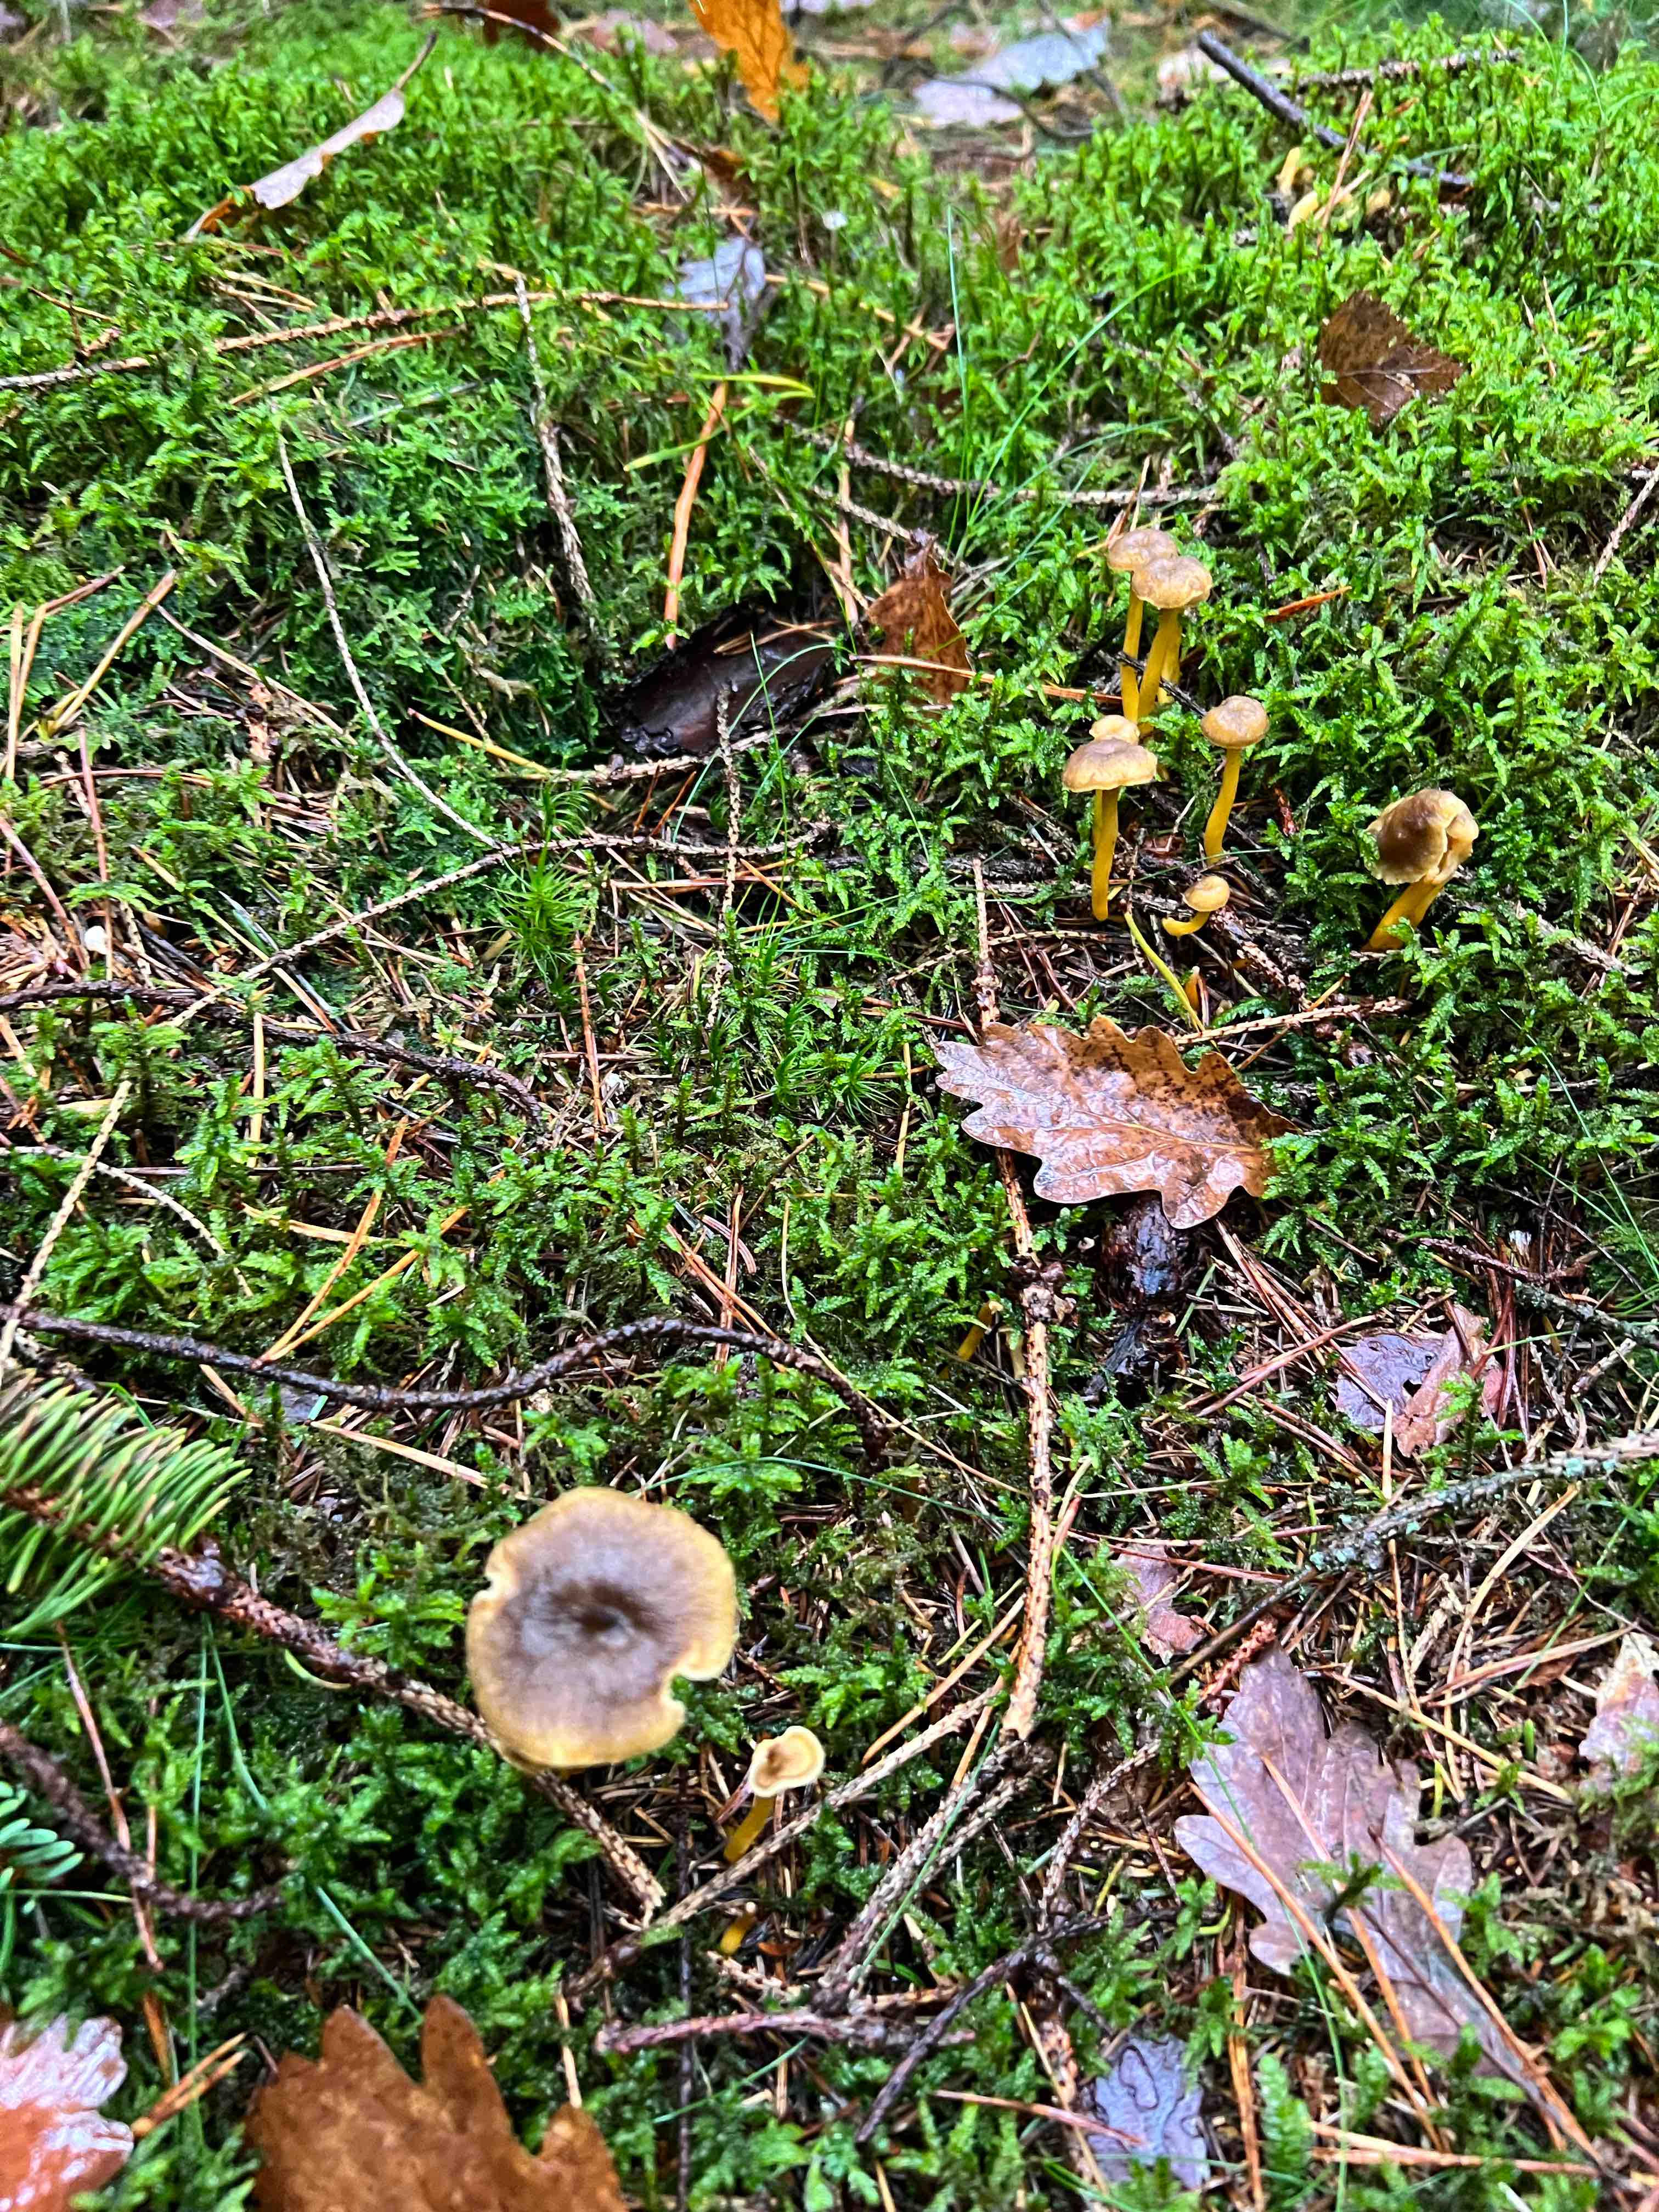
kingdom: Fungi
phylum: Basidiomycota
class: Agaricomycetes
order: Cantharellales
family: Hydnaceae
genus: Craterellus
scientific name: Craterellus tubaeformis
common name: tragt-kantarel
